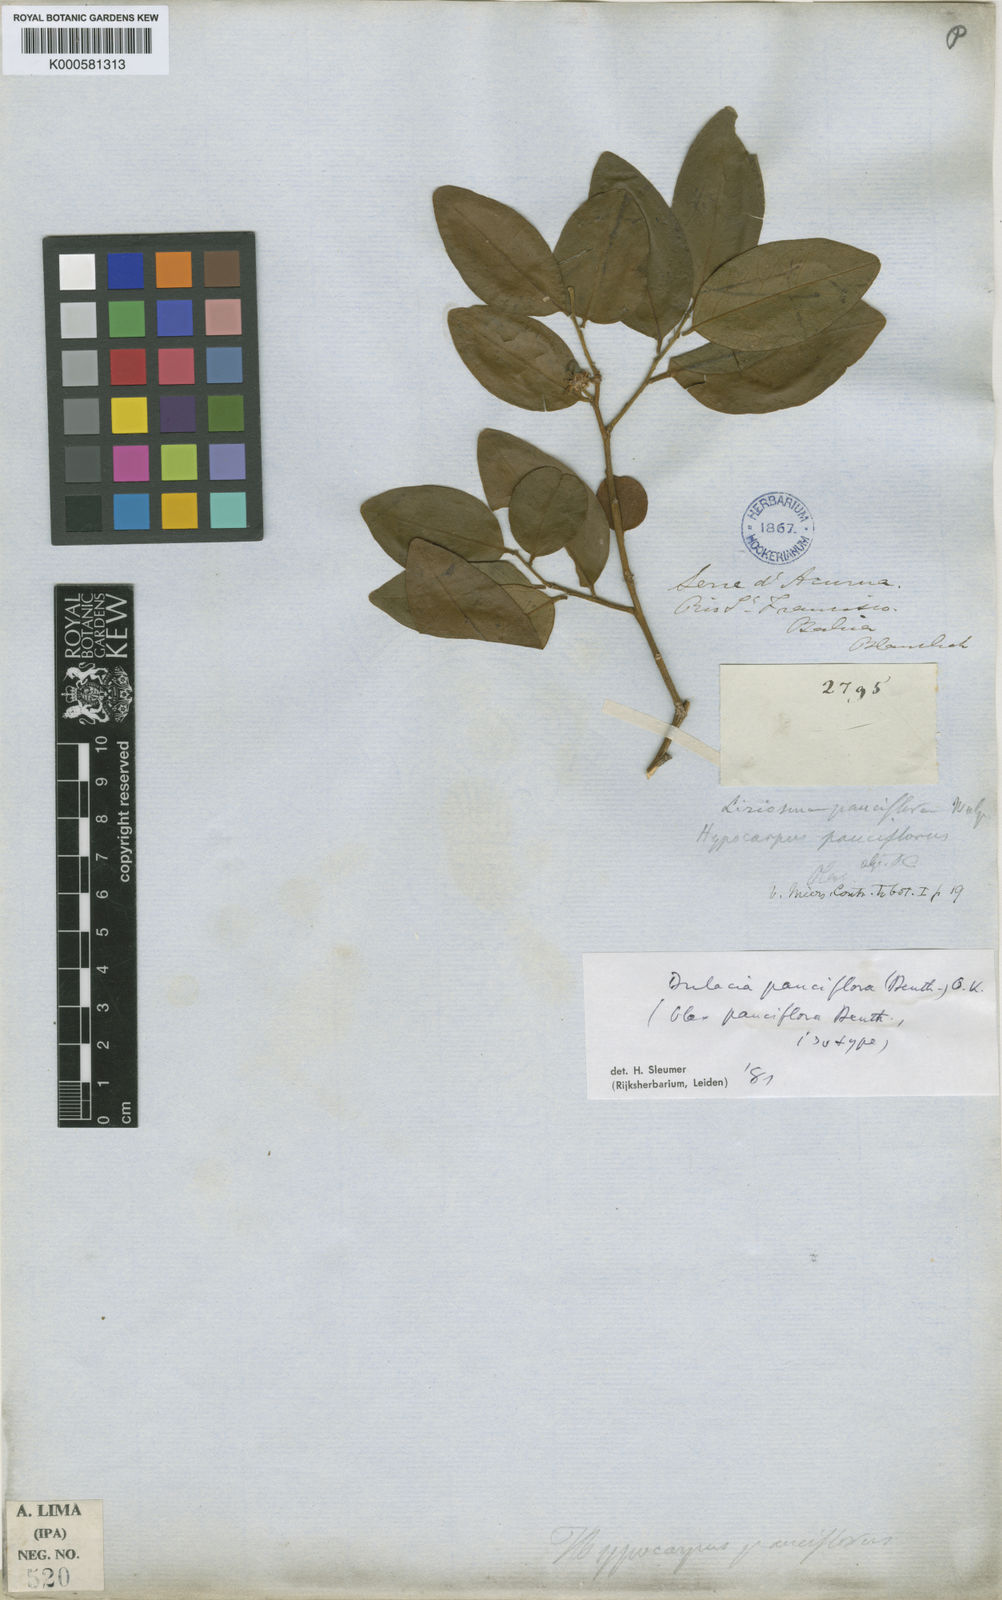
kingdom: Plantae
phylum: Tracheophyta
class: Magnoliopsida
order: Santalales
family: Olacaceae
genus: Dulacia
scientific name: Dulacia pauciflora
